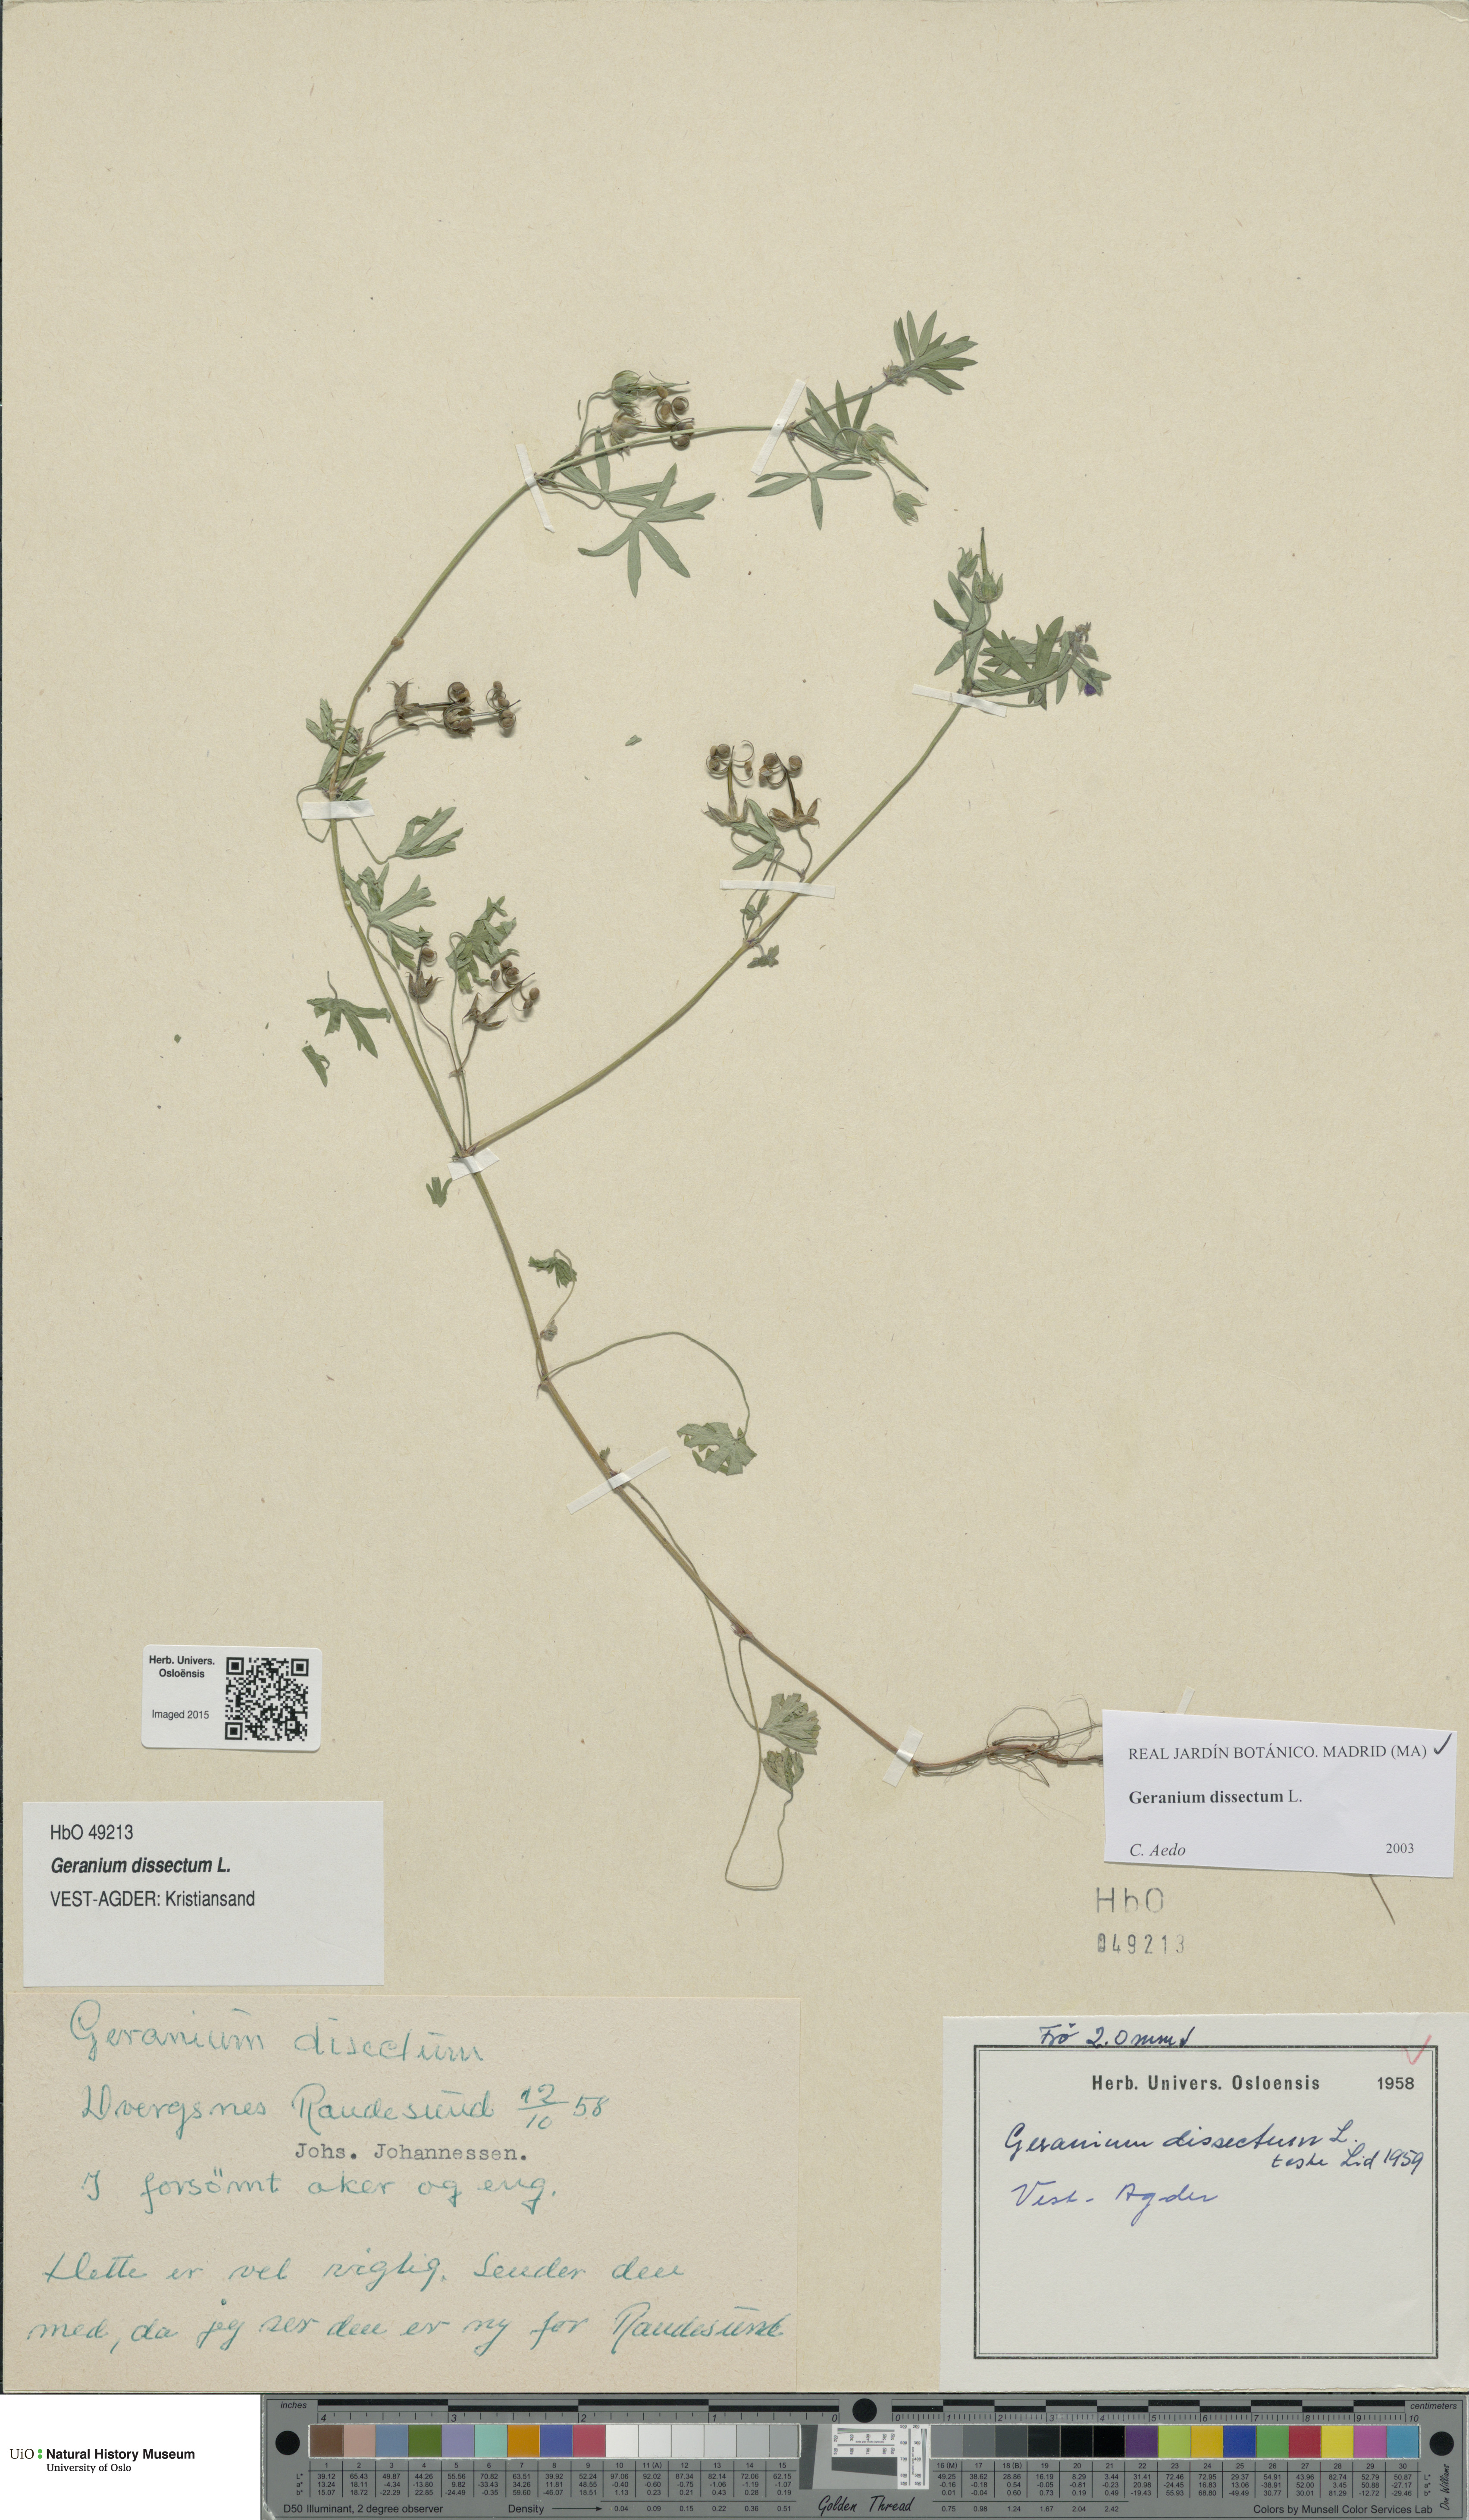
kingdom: Plantae
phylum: Tracheophyta
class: Magnoliopsida
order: Geraniales
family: Geraniaceae
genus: Geranium
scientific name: Geranium dissectum
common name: Cut-leaved crane's-bill
